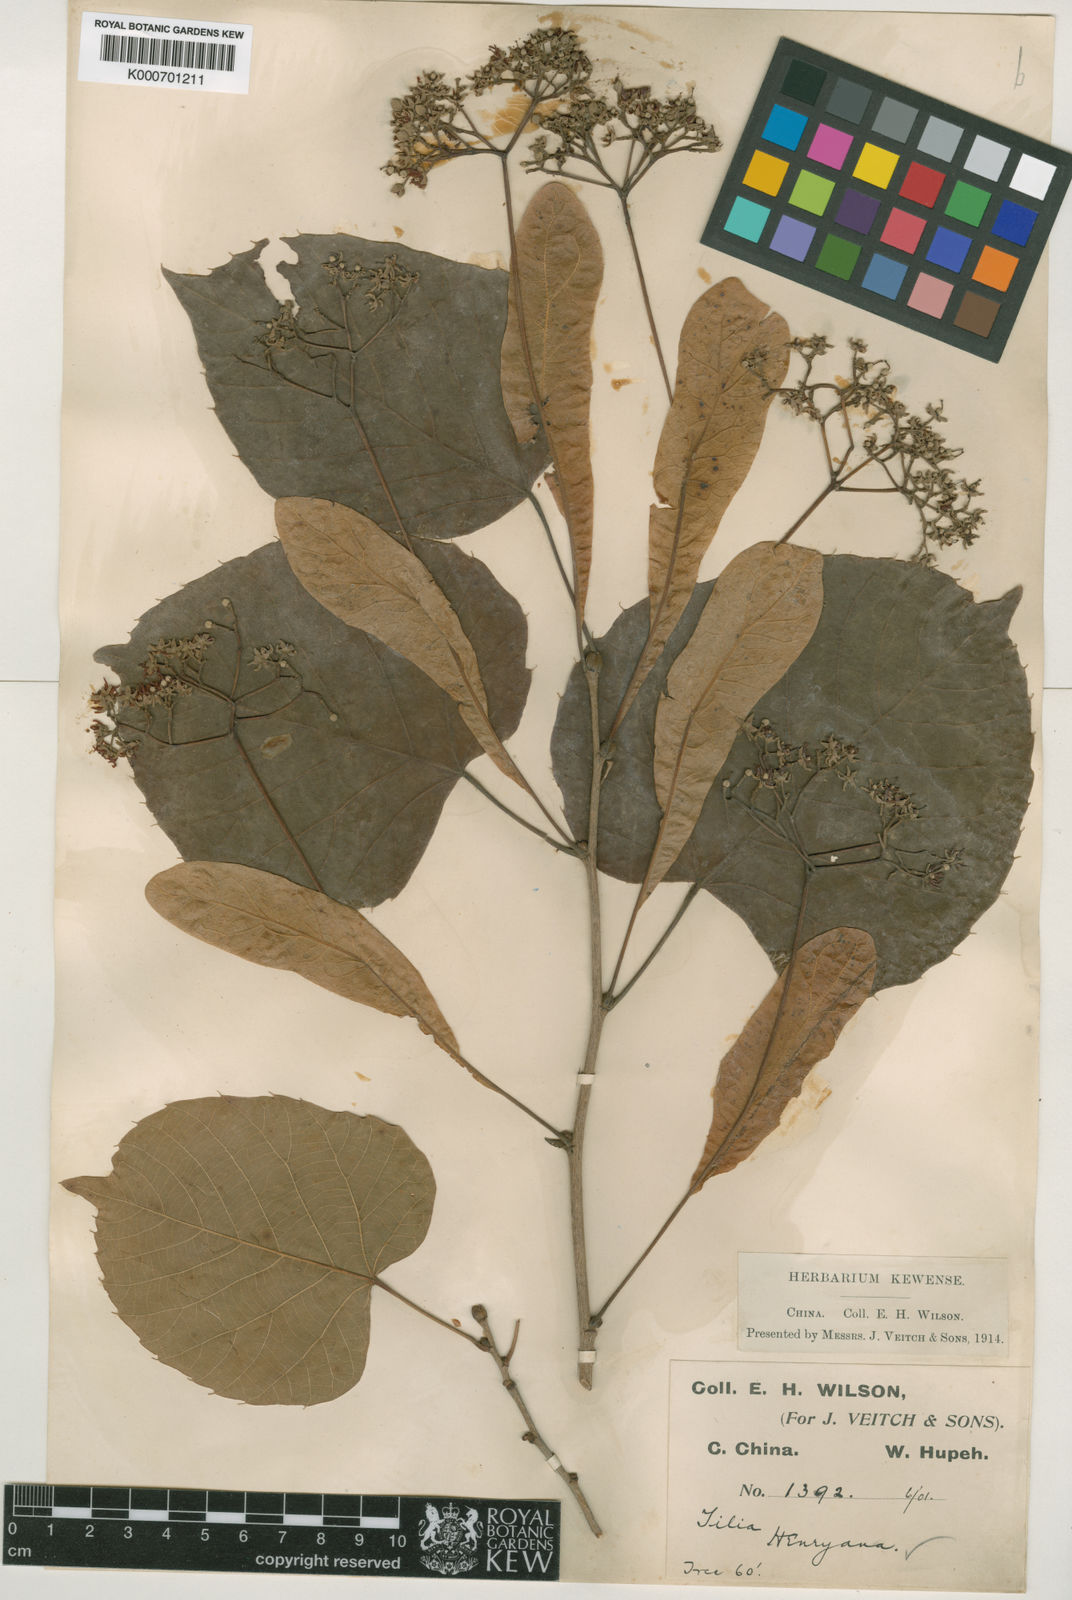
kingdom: Plantae
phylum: Tracheophyta
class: Magnoliopsida
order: Malvales
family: Malvaceae
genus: Tilia
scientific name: Tilia henryana
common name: Henry's lime
